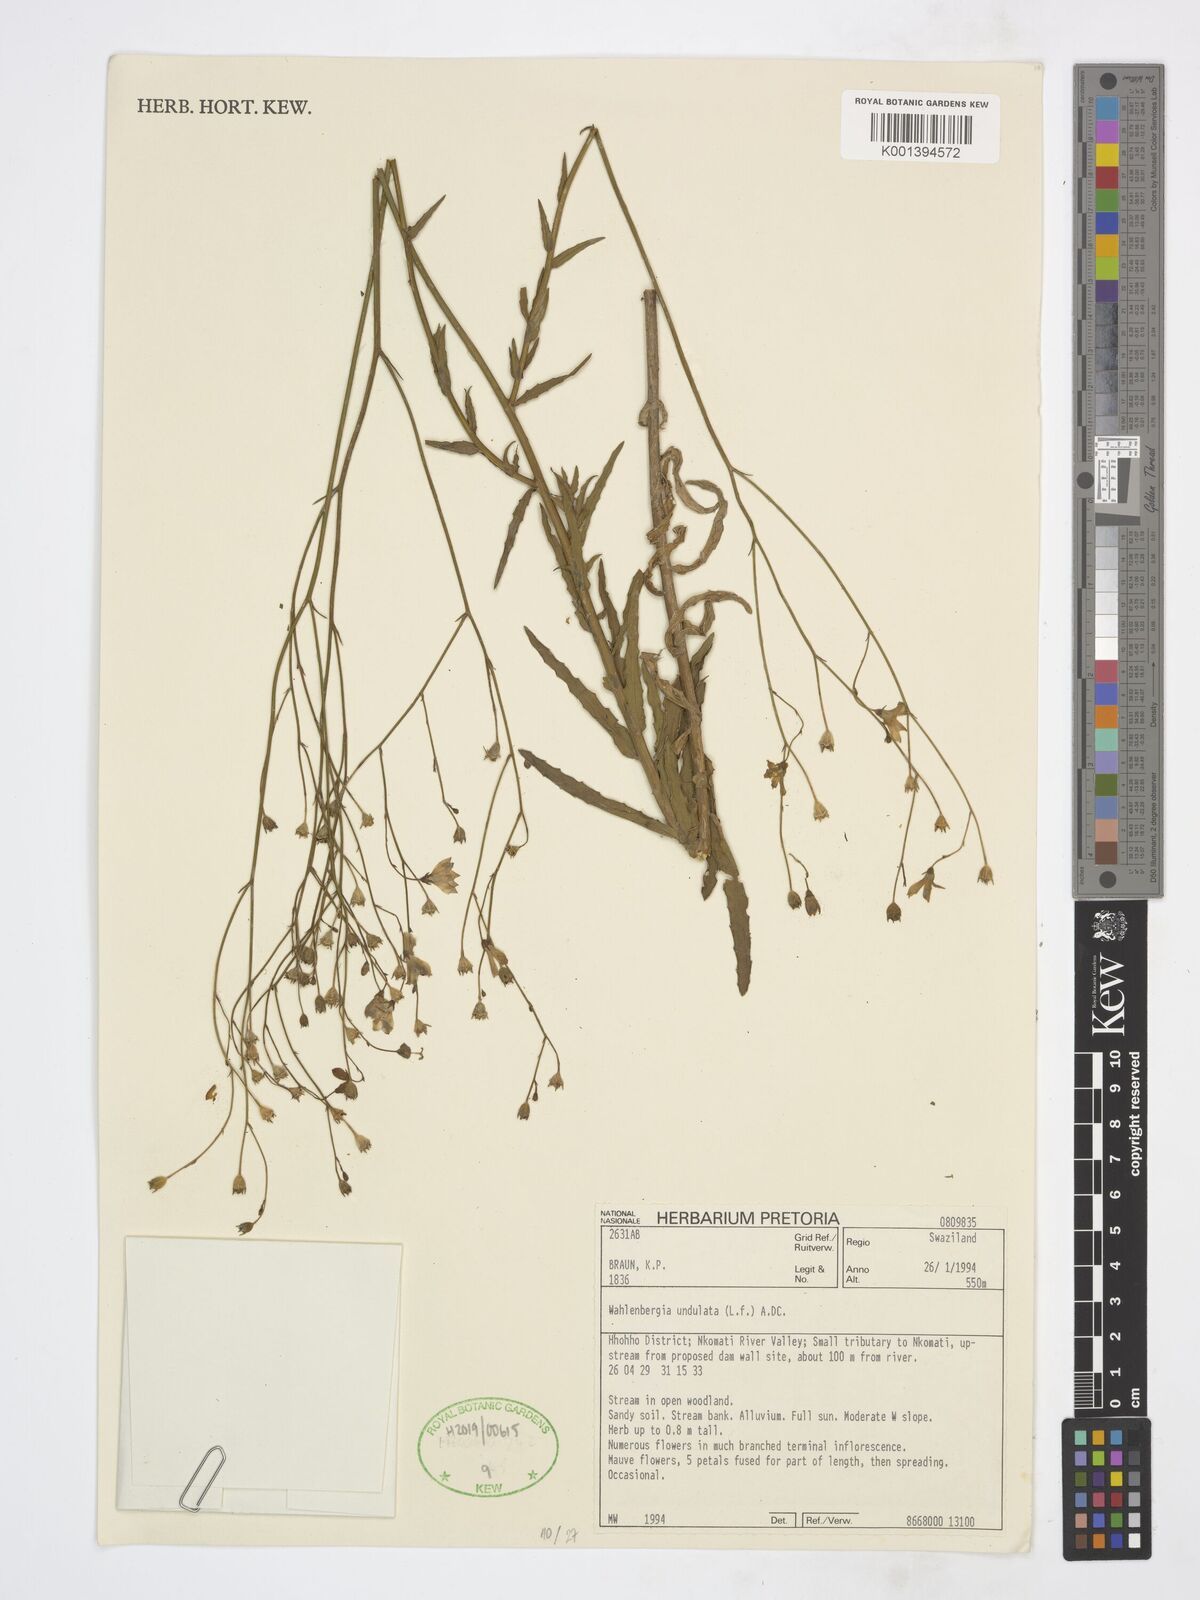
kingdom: Plantae
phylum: Tracheophyta
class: Magnoliopsida
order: Asterales
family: Campanulaceae
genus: Wahlenbergia
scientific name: Wahlenbergia undulata
